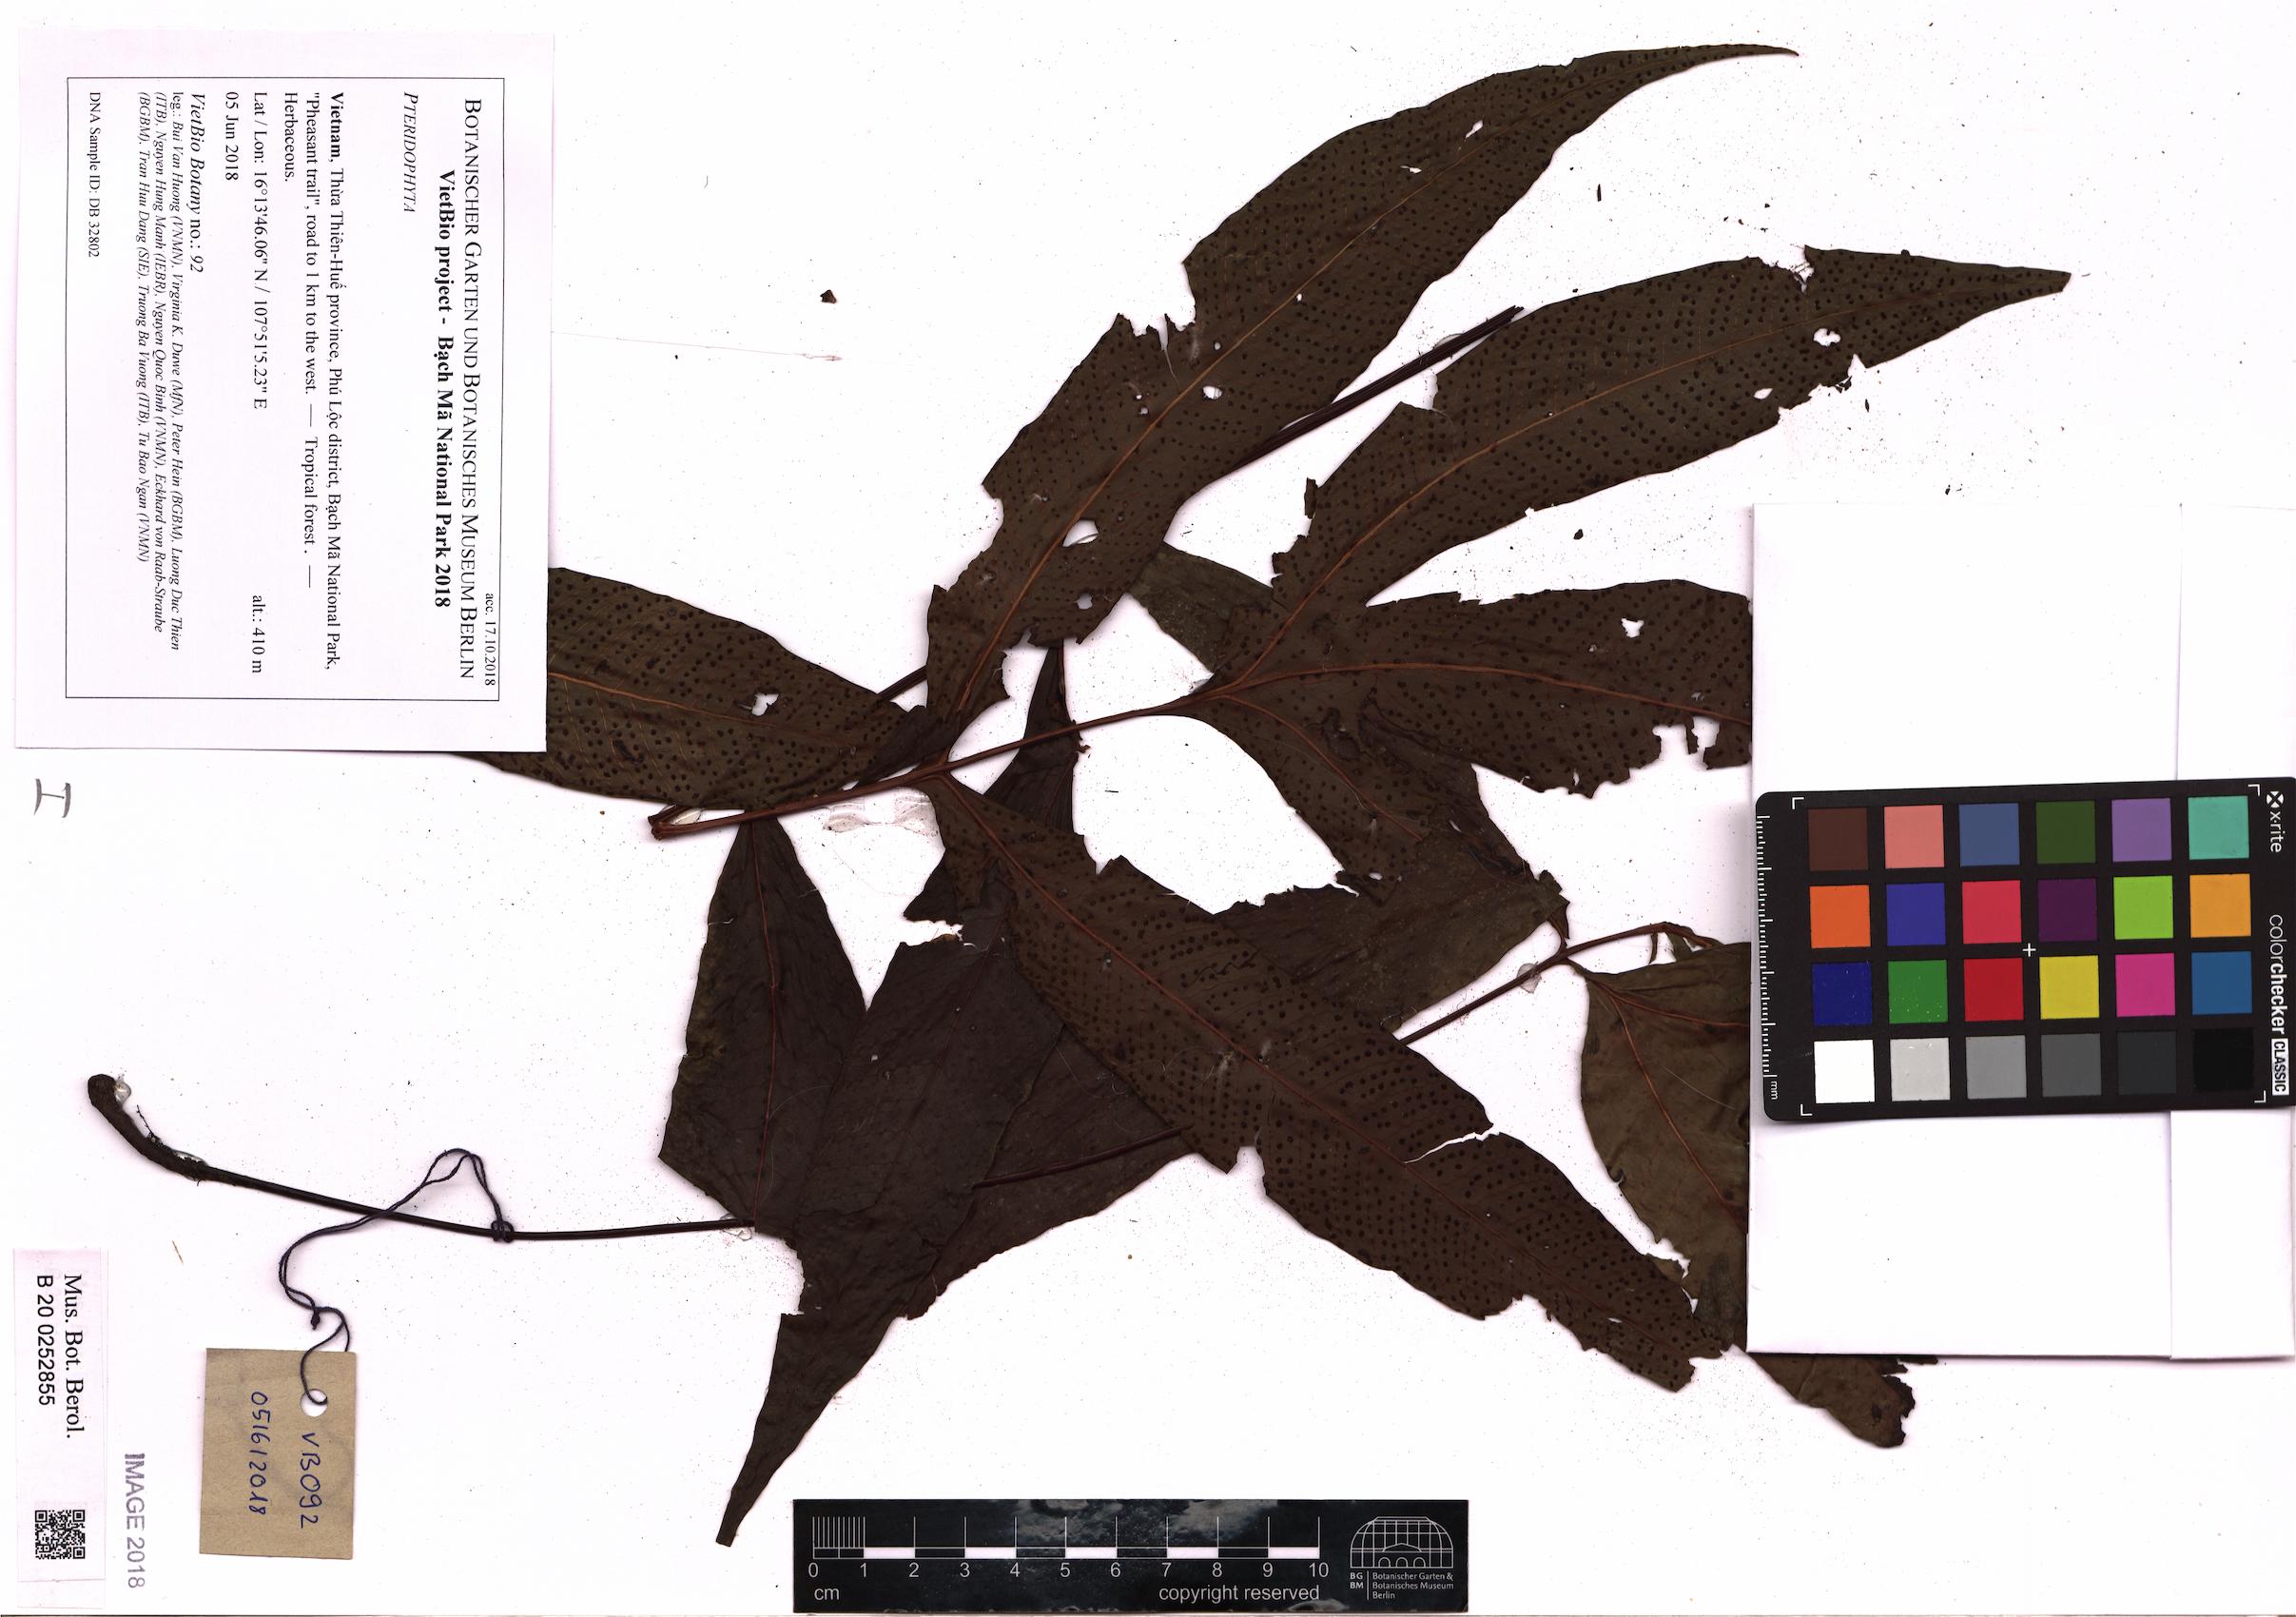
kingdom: Plantae
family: Pteridophyta
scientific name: Pteridophyta
